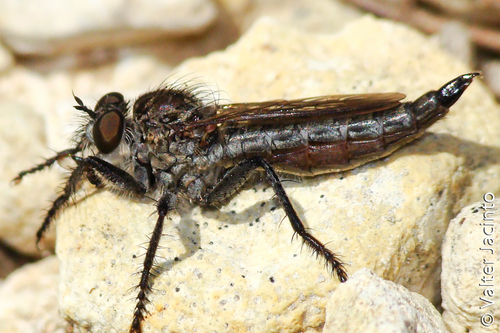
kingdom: Animalia
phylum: Arthropoda
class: Insecta
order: Diptera
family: Asilidae
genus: Machimus
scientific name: Machimus concinnus
